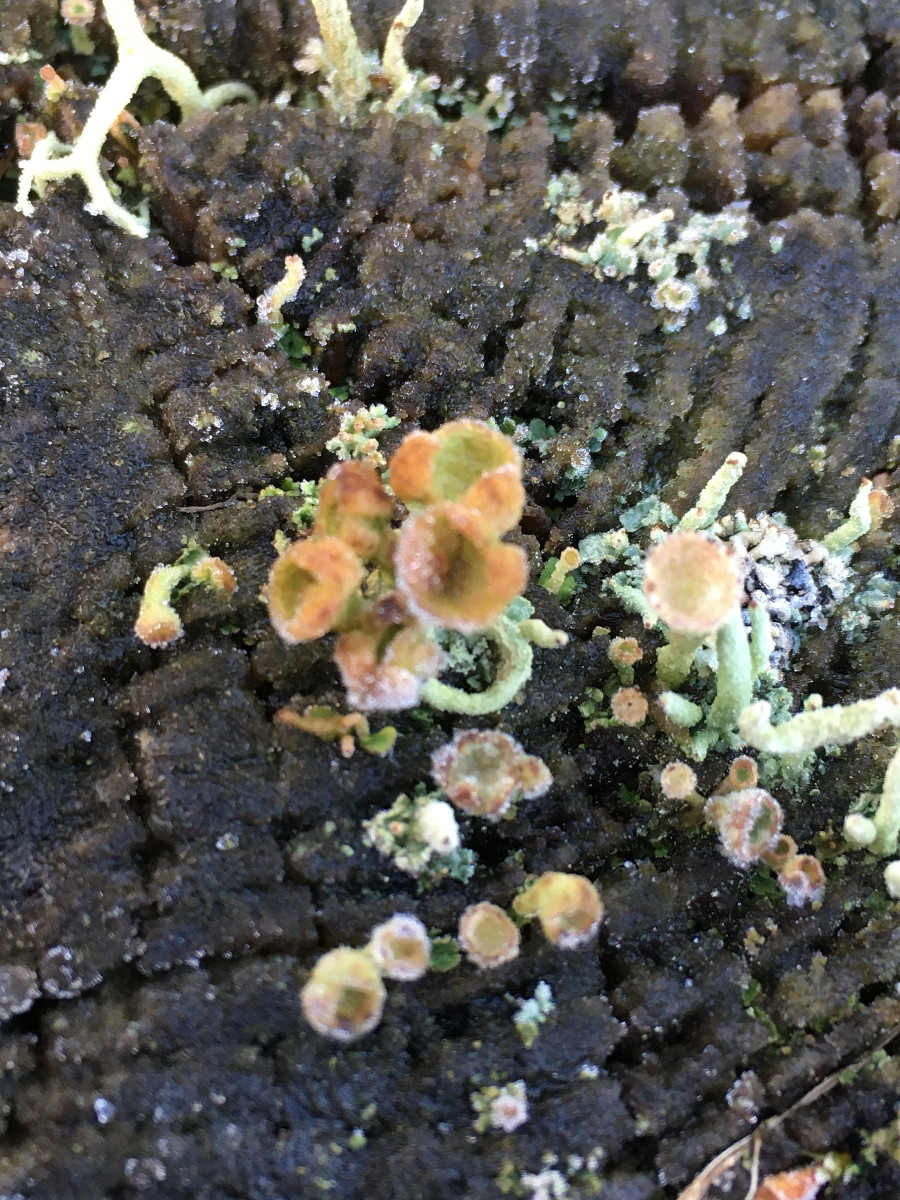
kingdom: Fungi
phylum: Ascomycota
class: Lecanoromycetes
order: Lecanorales
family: Cladoniaceae
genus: Cladonia
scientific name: Cladonia
